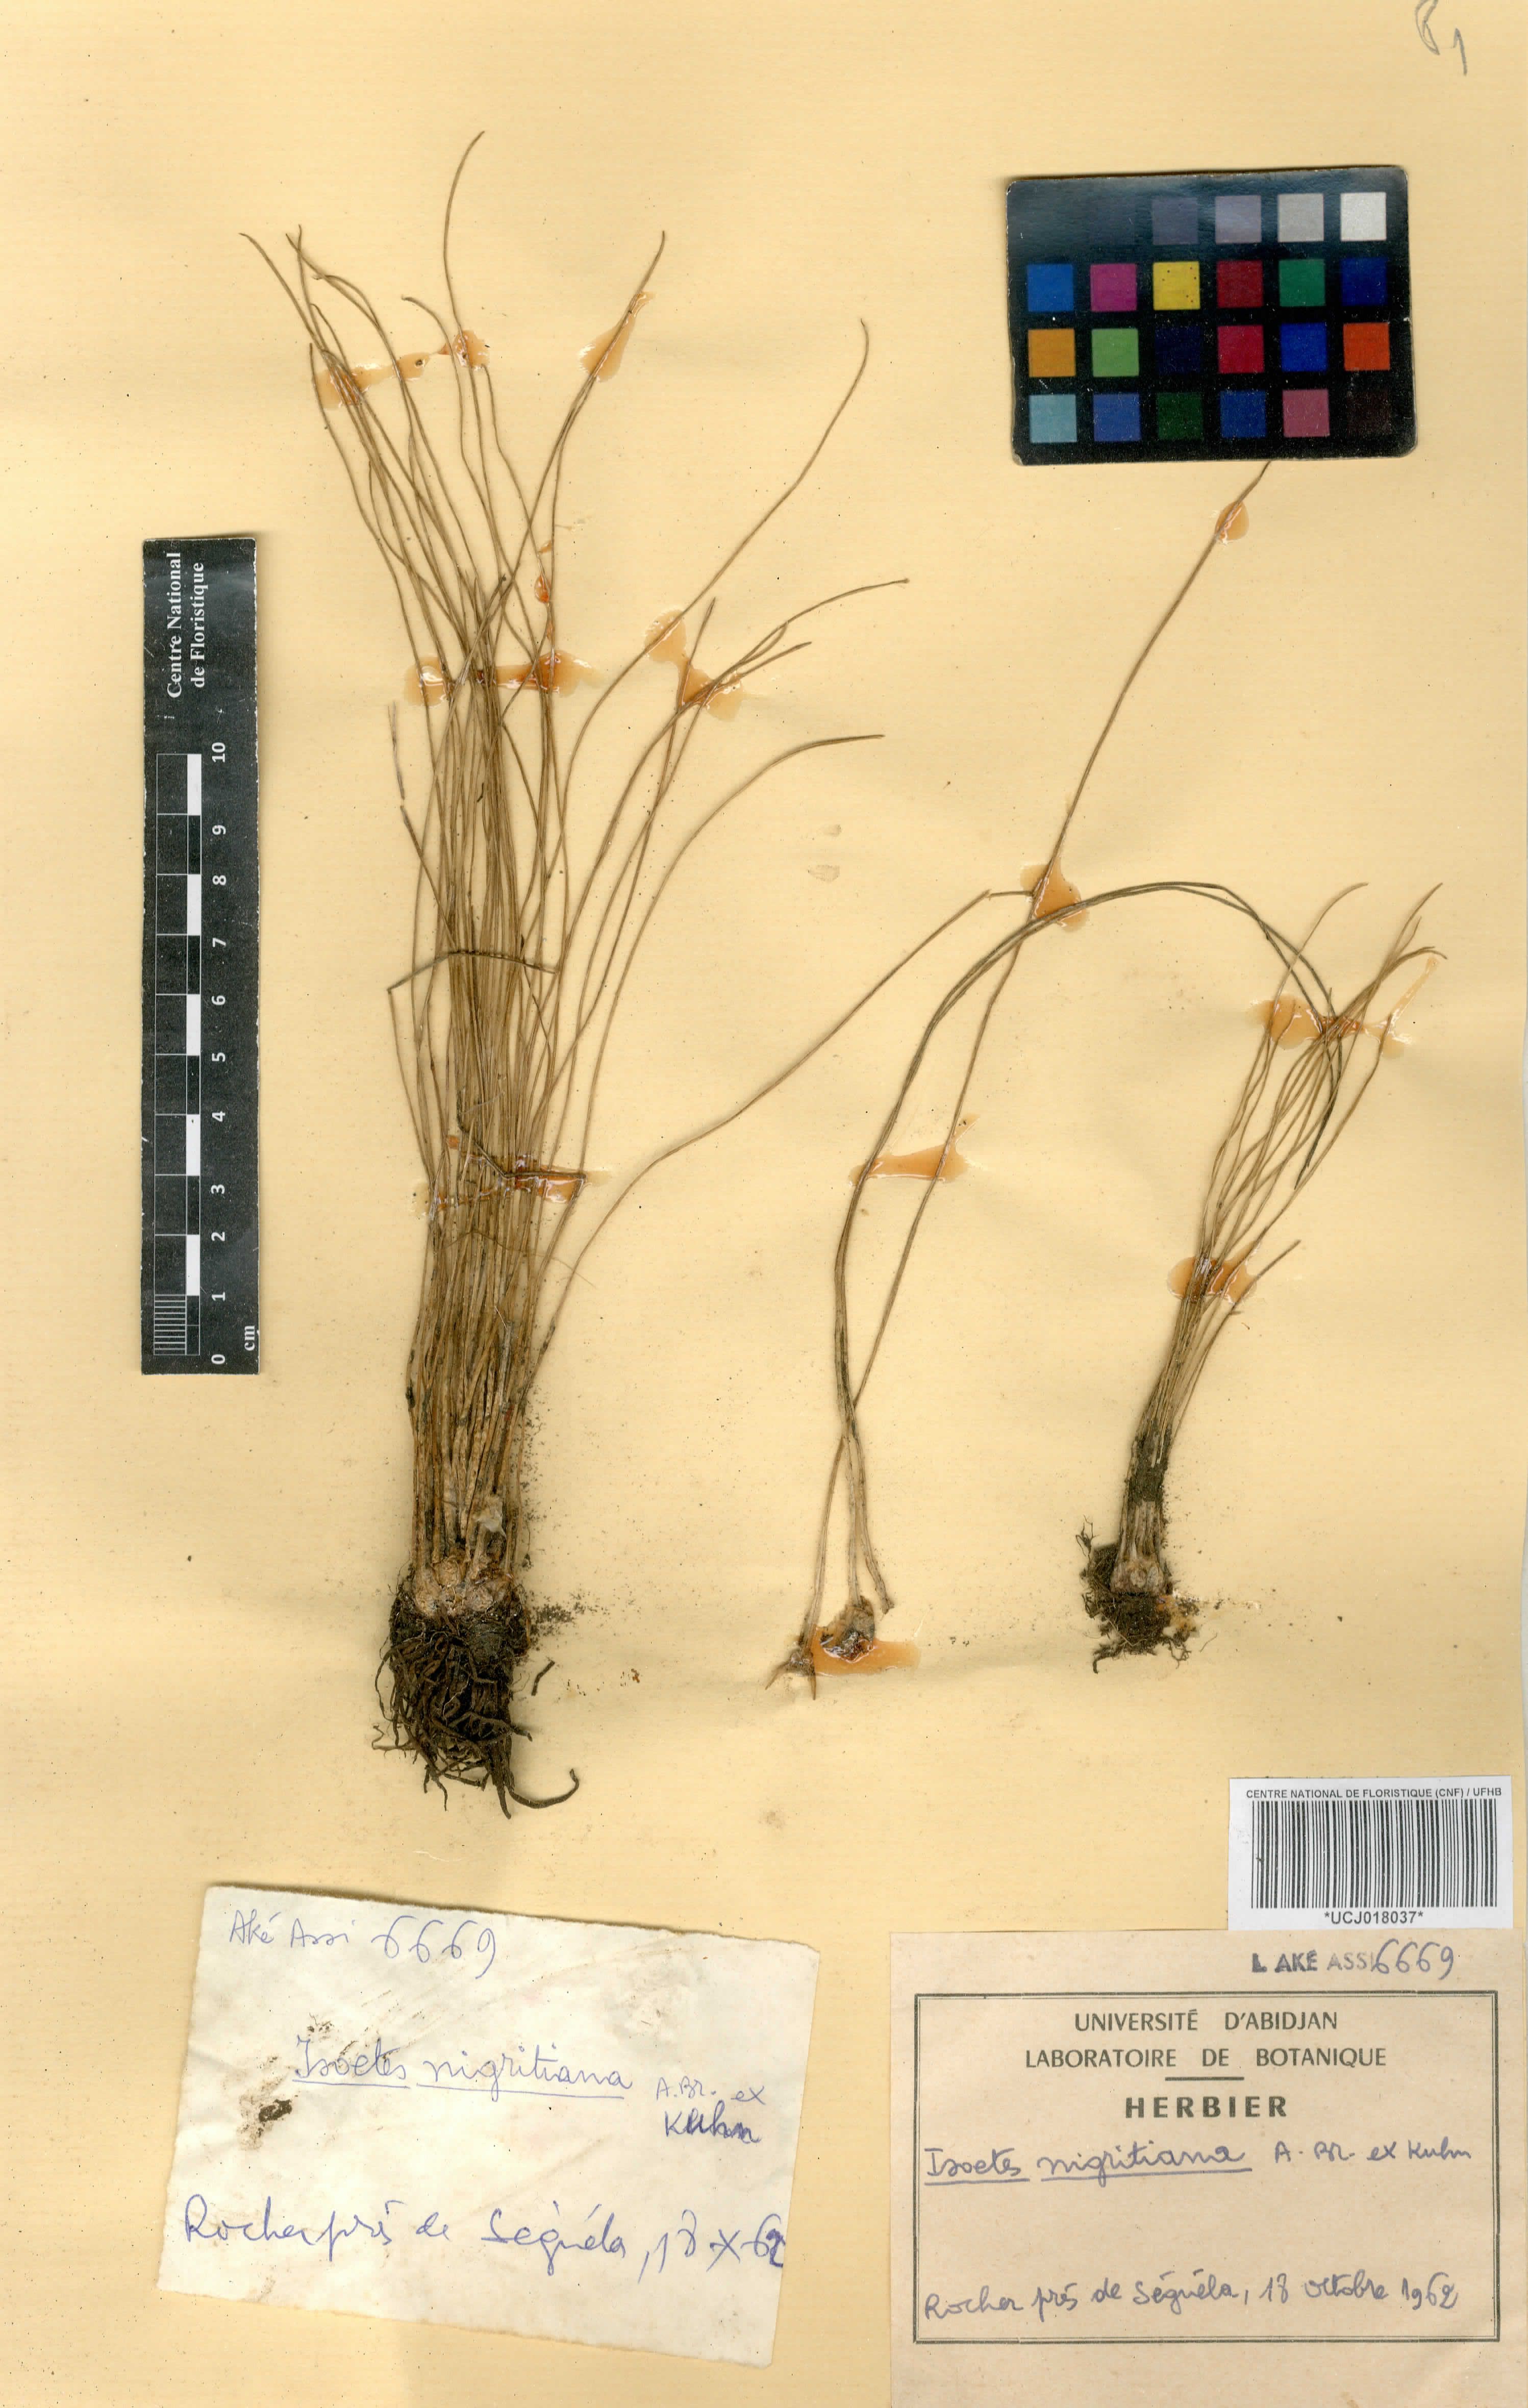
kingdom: Plantae
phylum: Tracheophyta
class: Lycopodiopsida
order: Isoetales
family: Isoetaceae
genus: Isoetes
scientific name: Isoetes nigritiana
